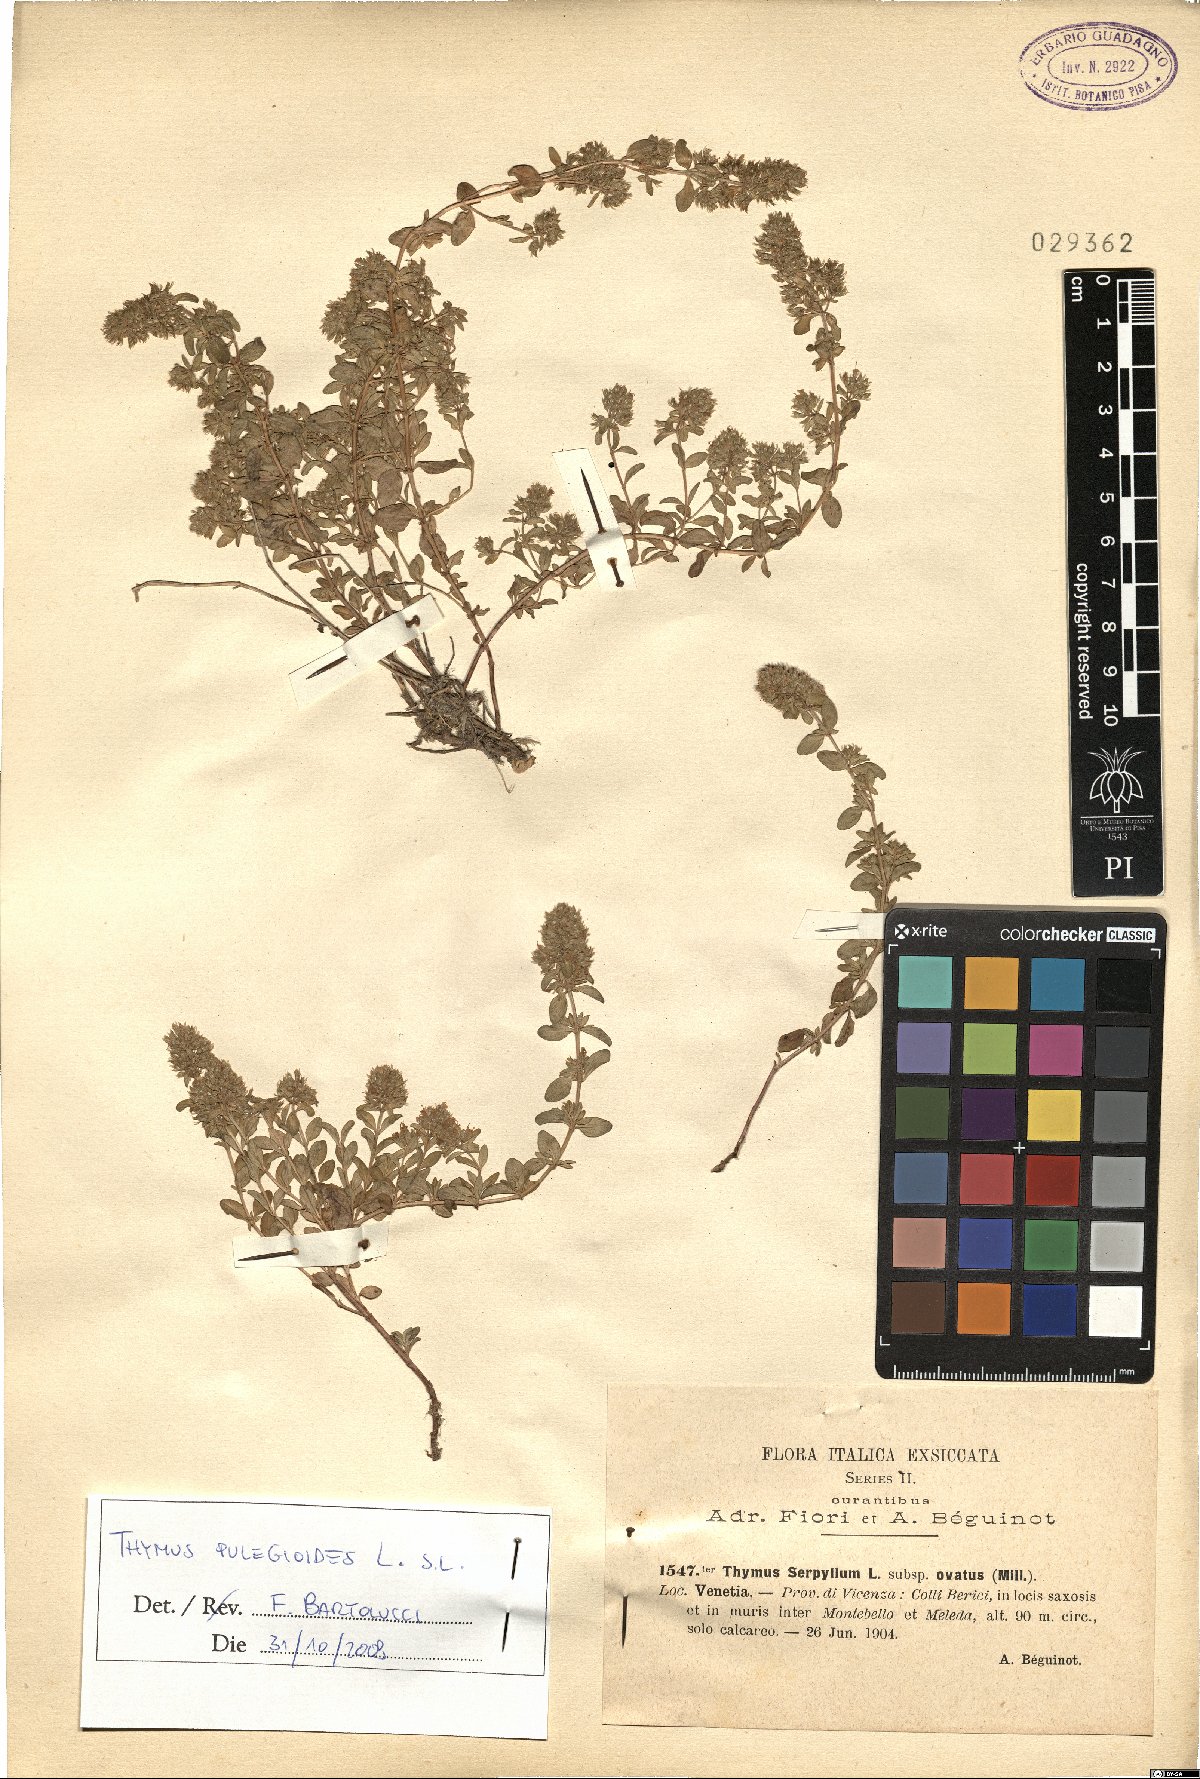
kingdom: Plantae
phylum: Tracheophyta
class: Magnoliopsida
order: Lamiales
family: Lamiaceae
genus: Thymus
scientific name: Thymus pulegioides
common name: Large thyme
